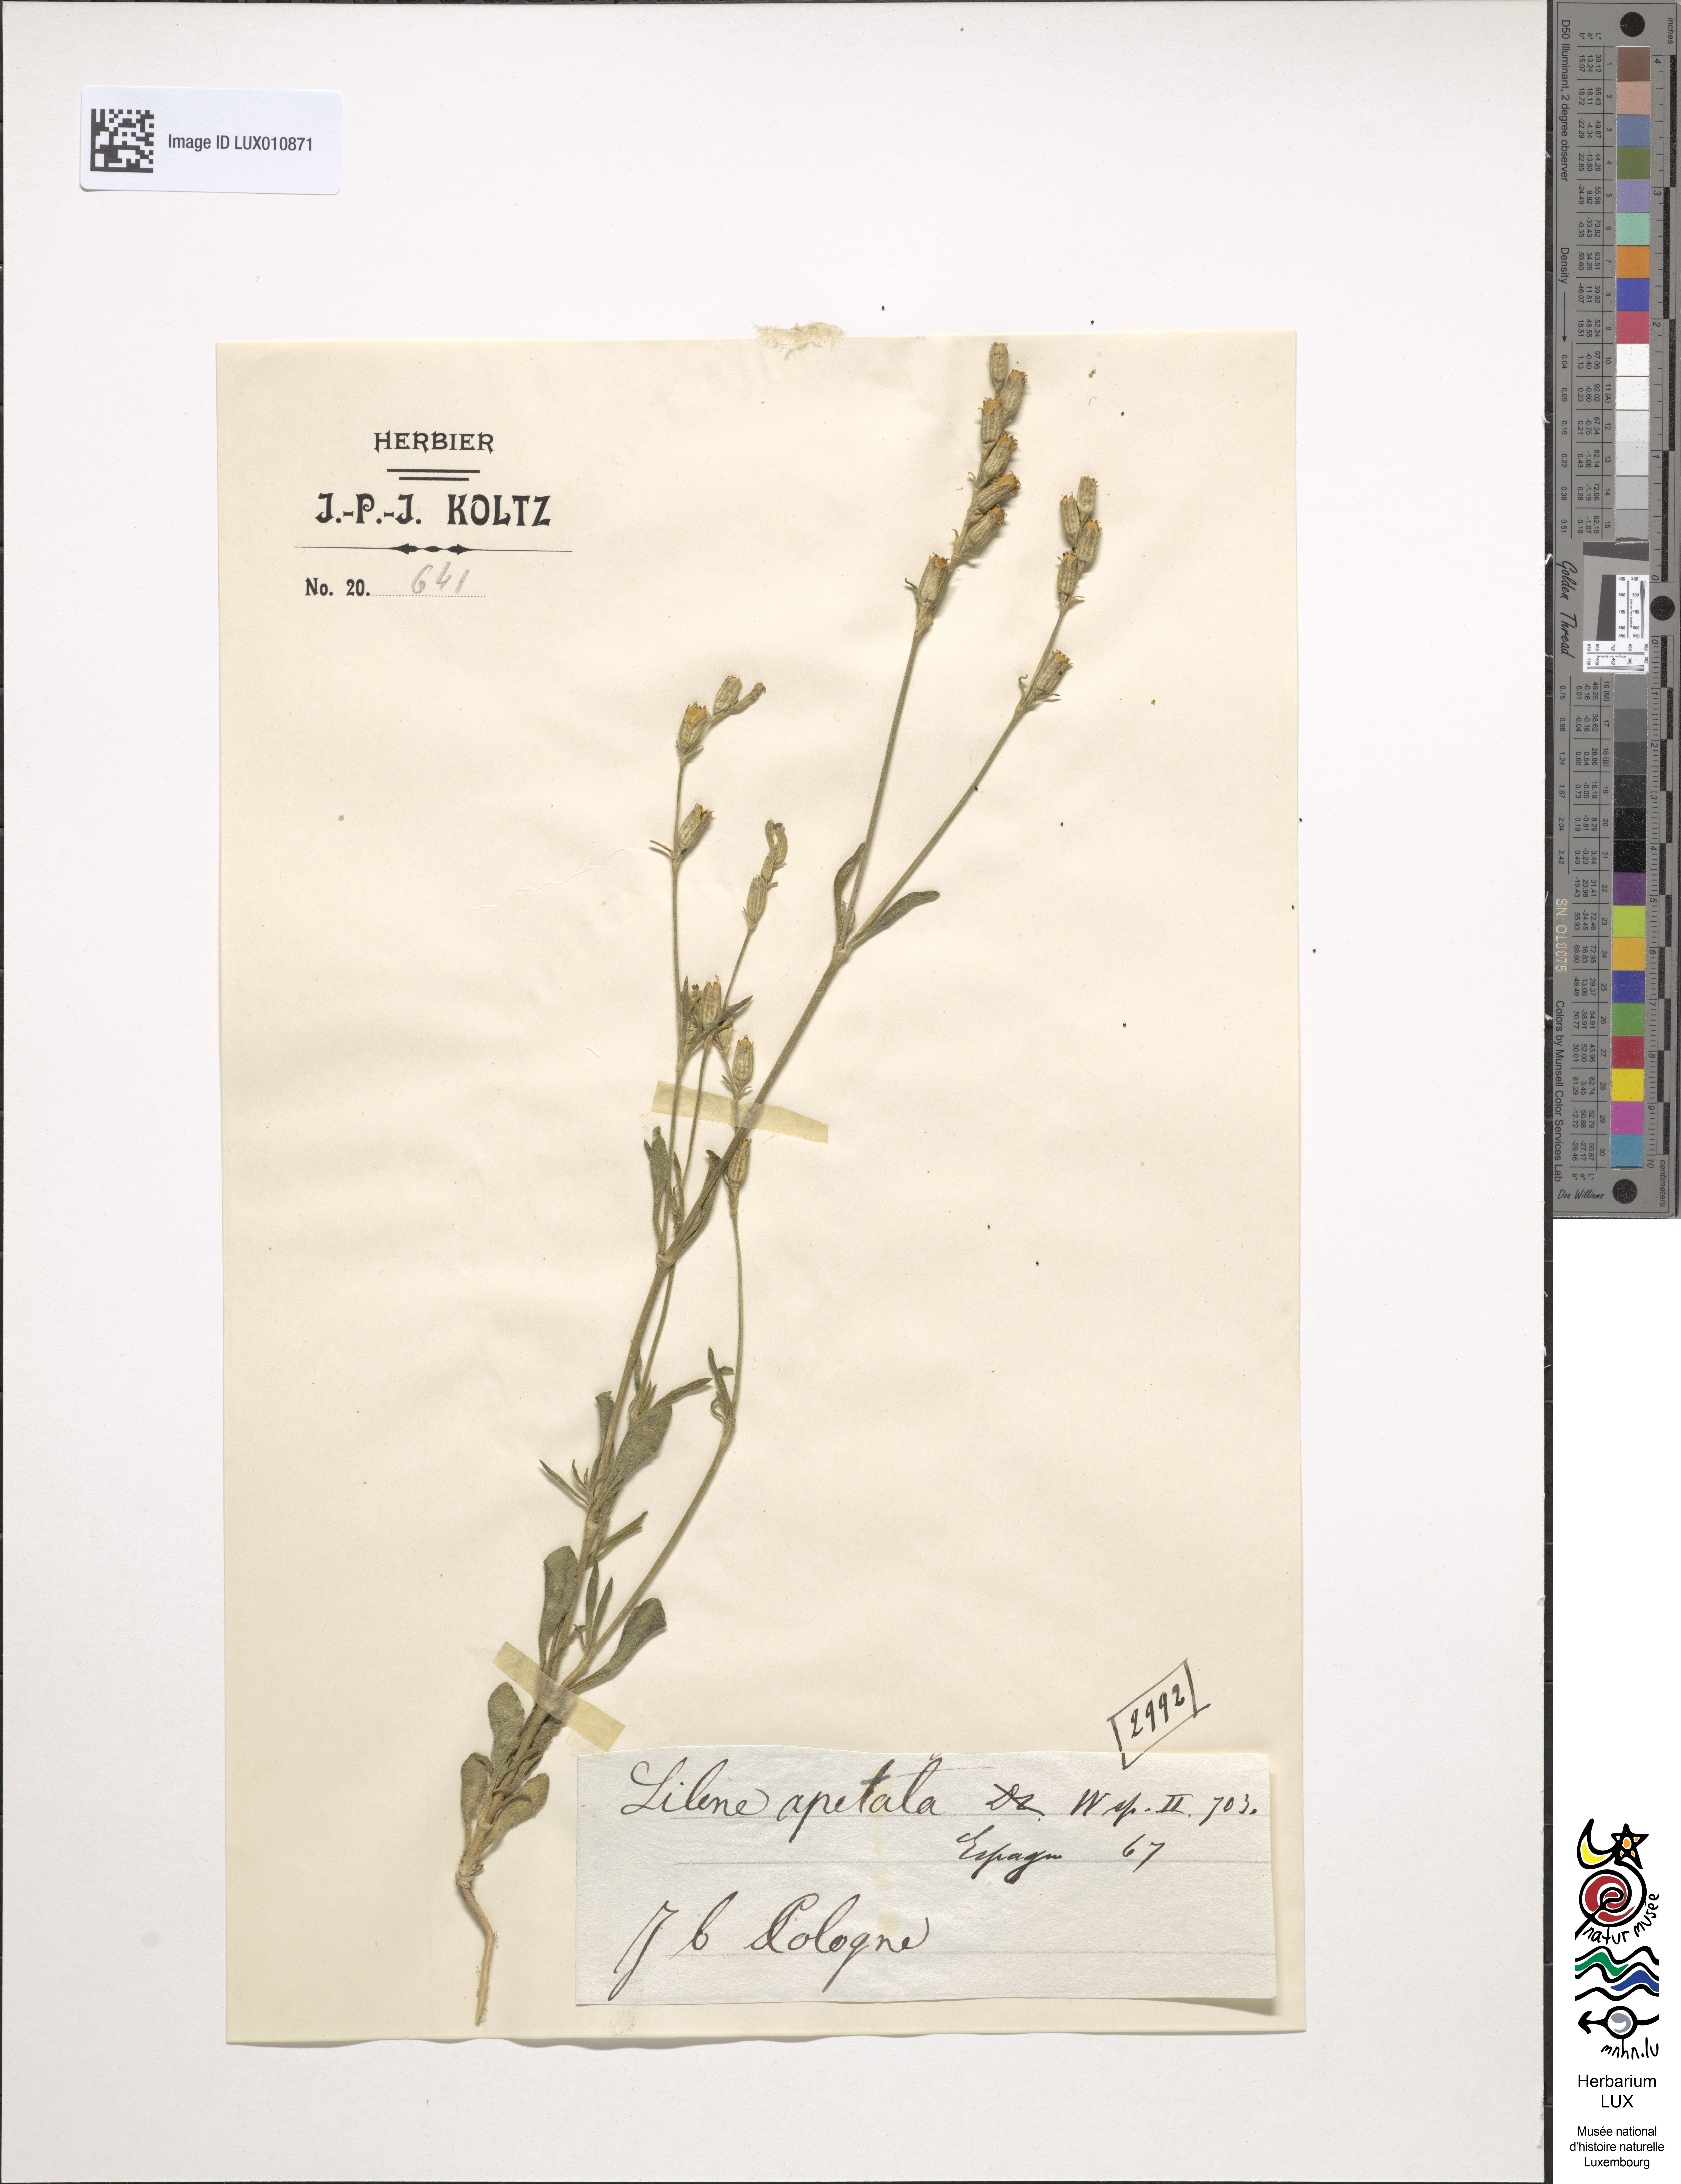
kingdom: Plantae
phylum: Tracheophyta
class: Magnoliopsida
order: Caryophyllales
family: Caryophyllaceae
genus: Silene
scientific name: Silene apetala
